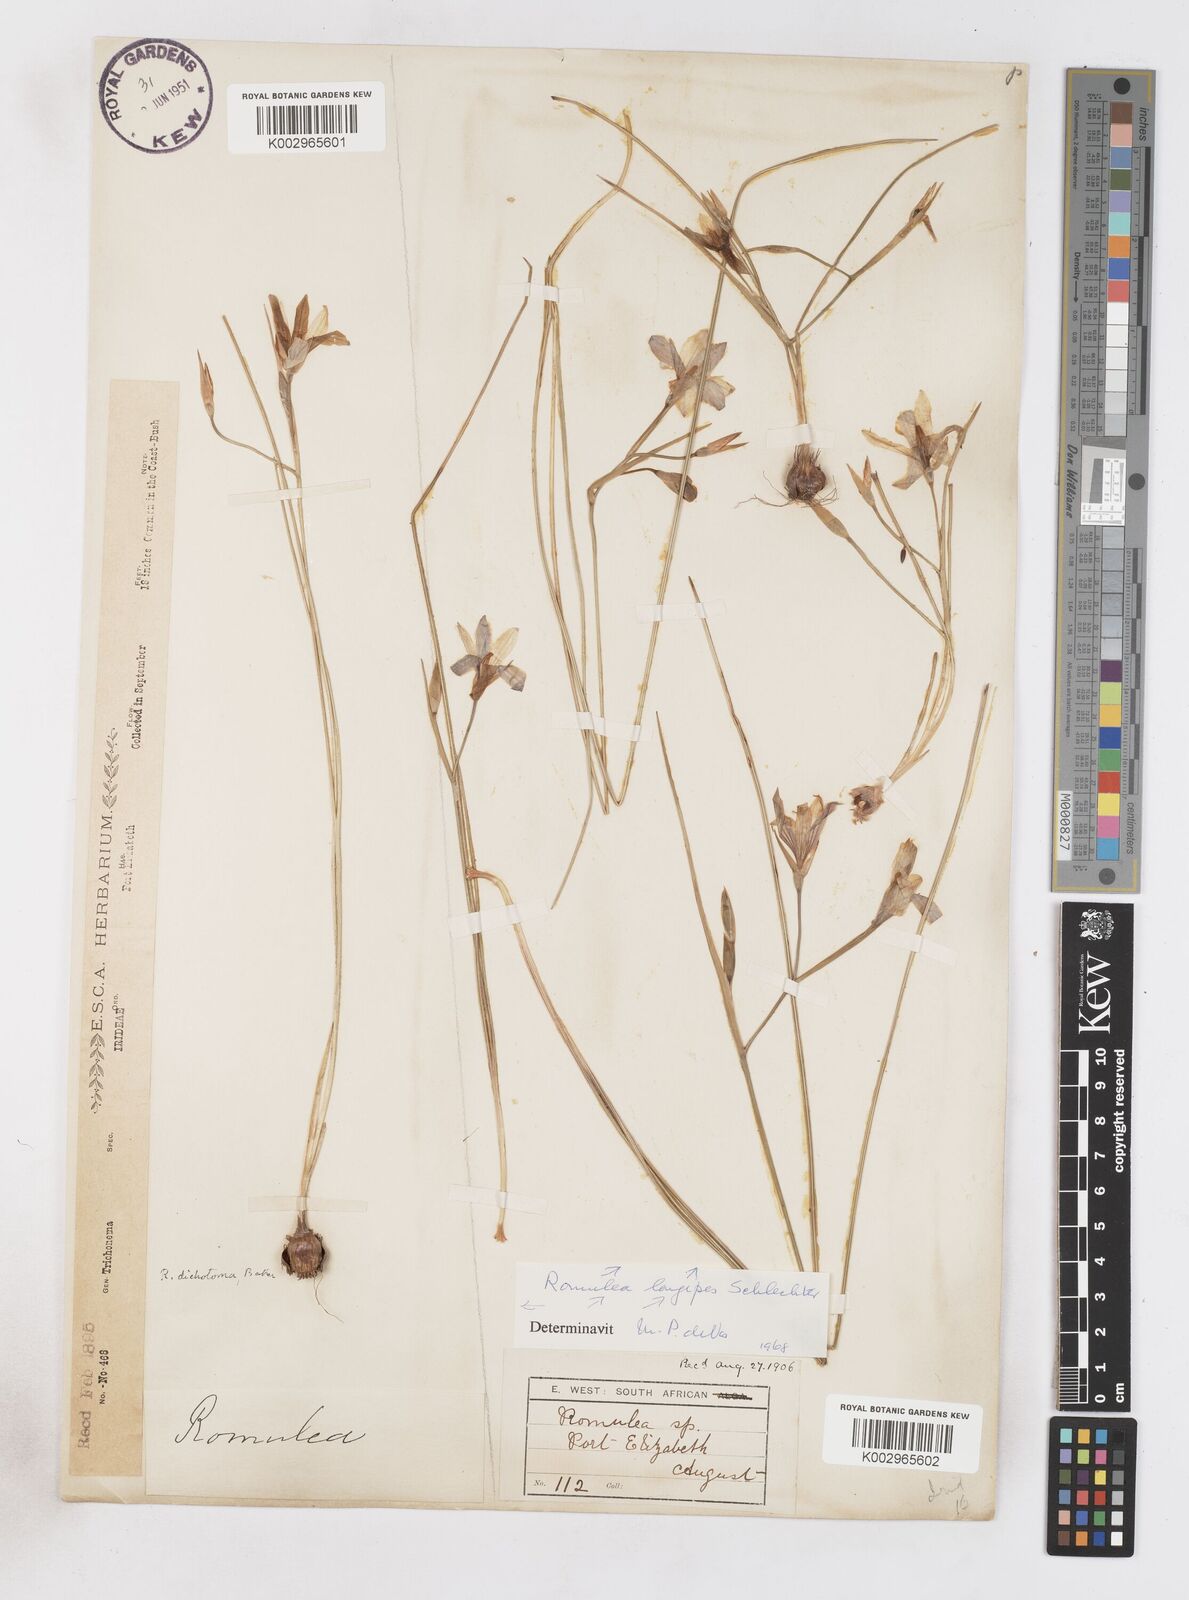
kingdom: Plantae
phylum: Tracheophyta
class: Liliopsida
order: Asparagales
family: Iridaceae
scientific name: Iridaceae
